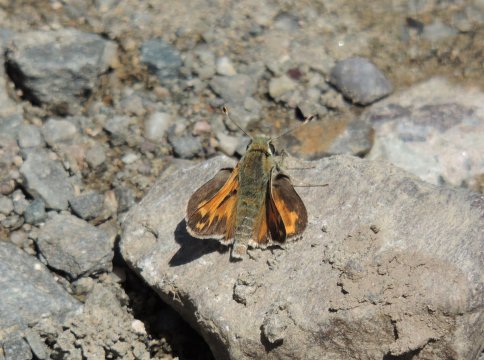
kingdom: Animalia
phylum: Arthropoda
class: Insecta
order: Lepidoptera
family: Hesperiidae
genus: Hesperia
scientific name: Hesperia juba
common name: Juba Skipper
